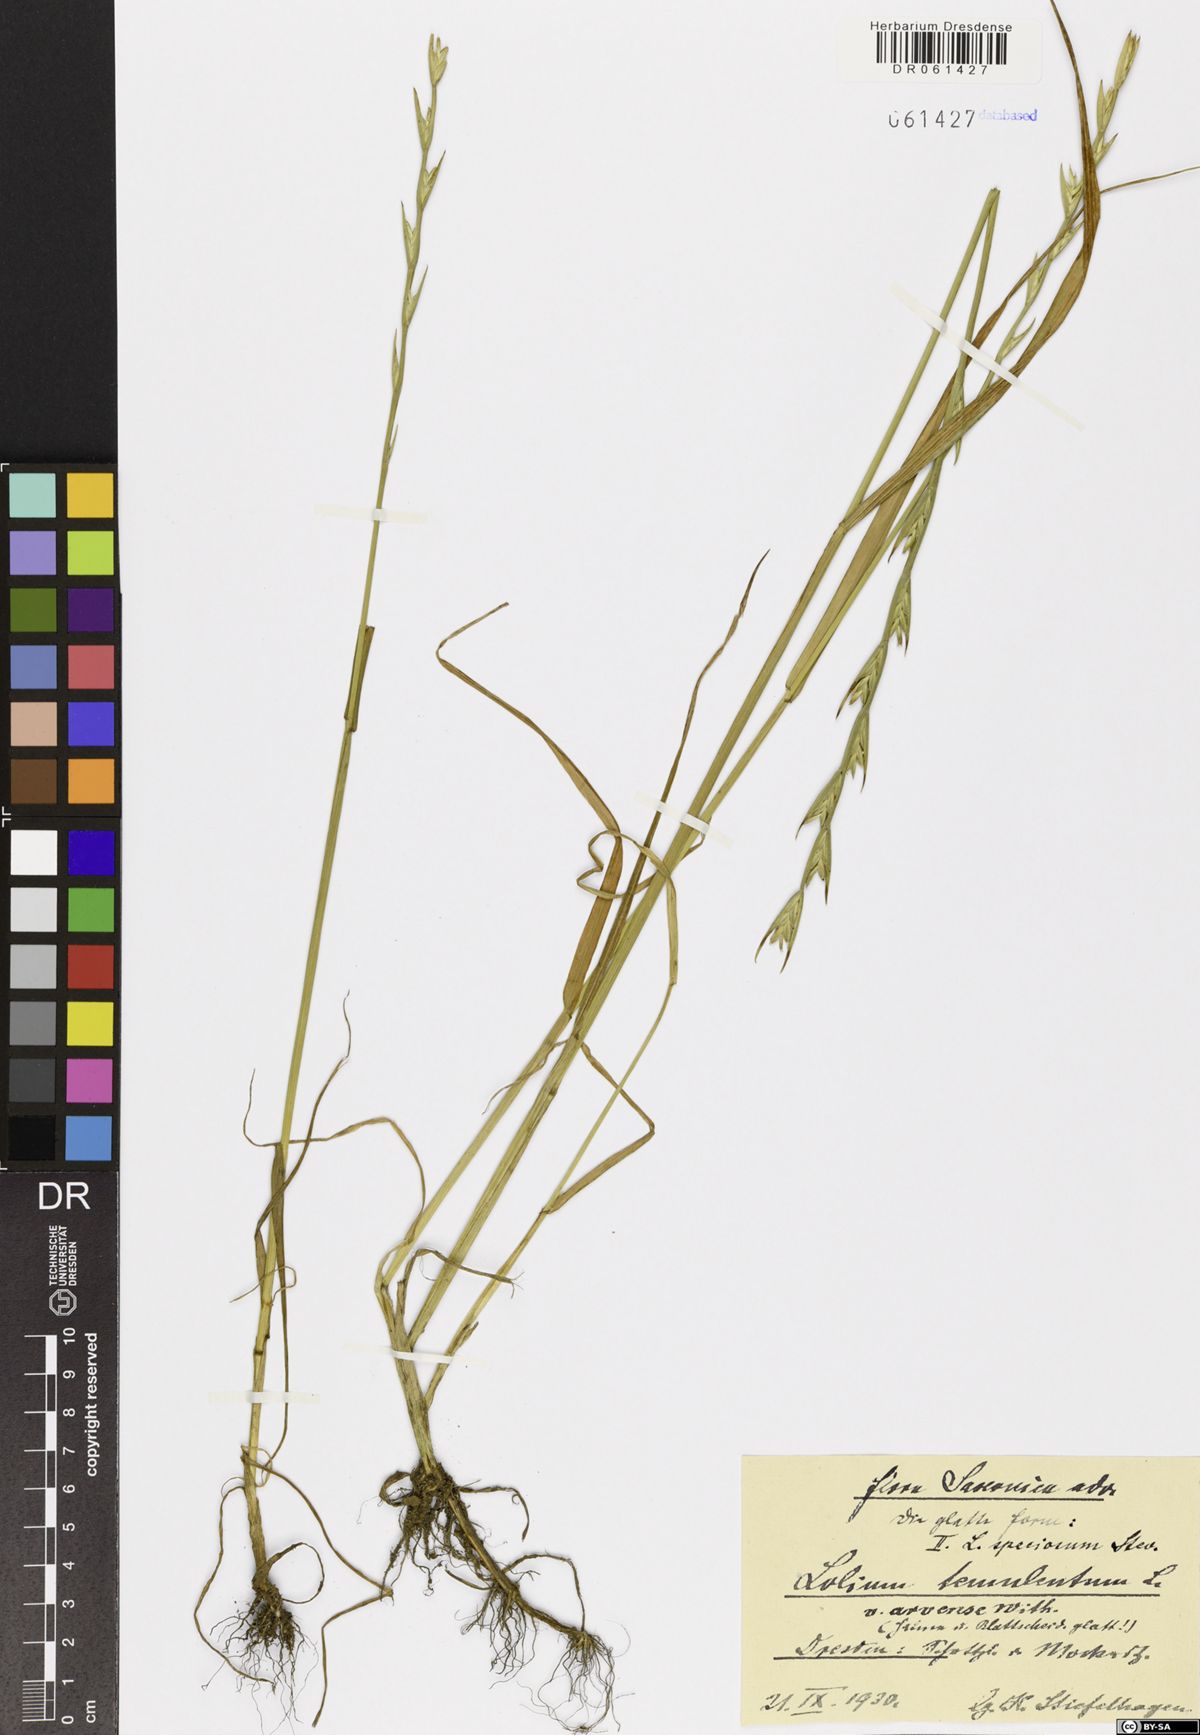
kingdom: Plantae
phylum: Tracheophyta
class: Liliopsida
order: Poales
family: Poaceae
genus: Lolium
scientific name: Lolium temulentum
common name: Darnel
